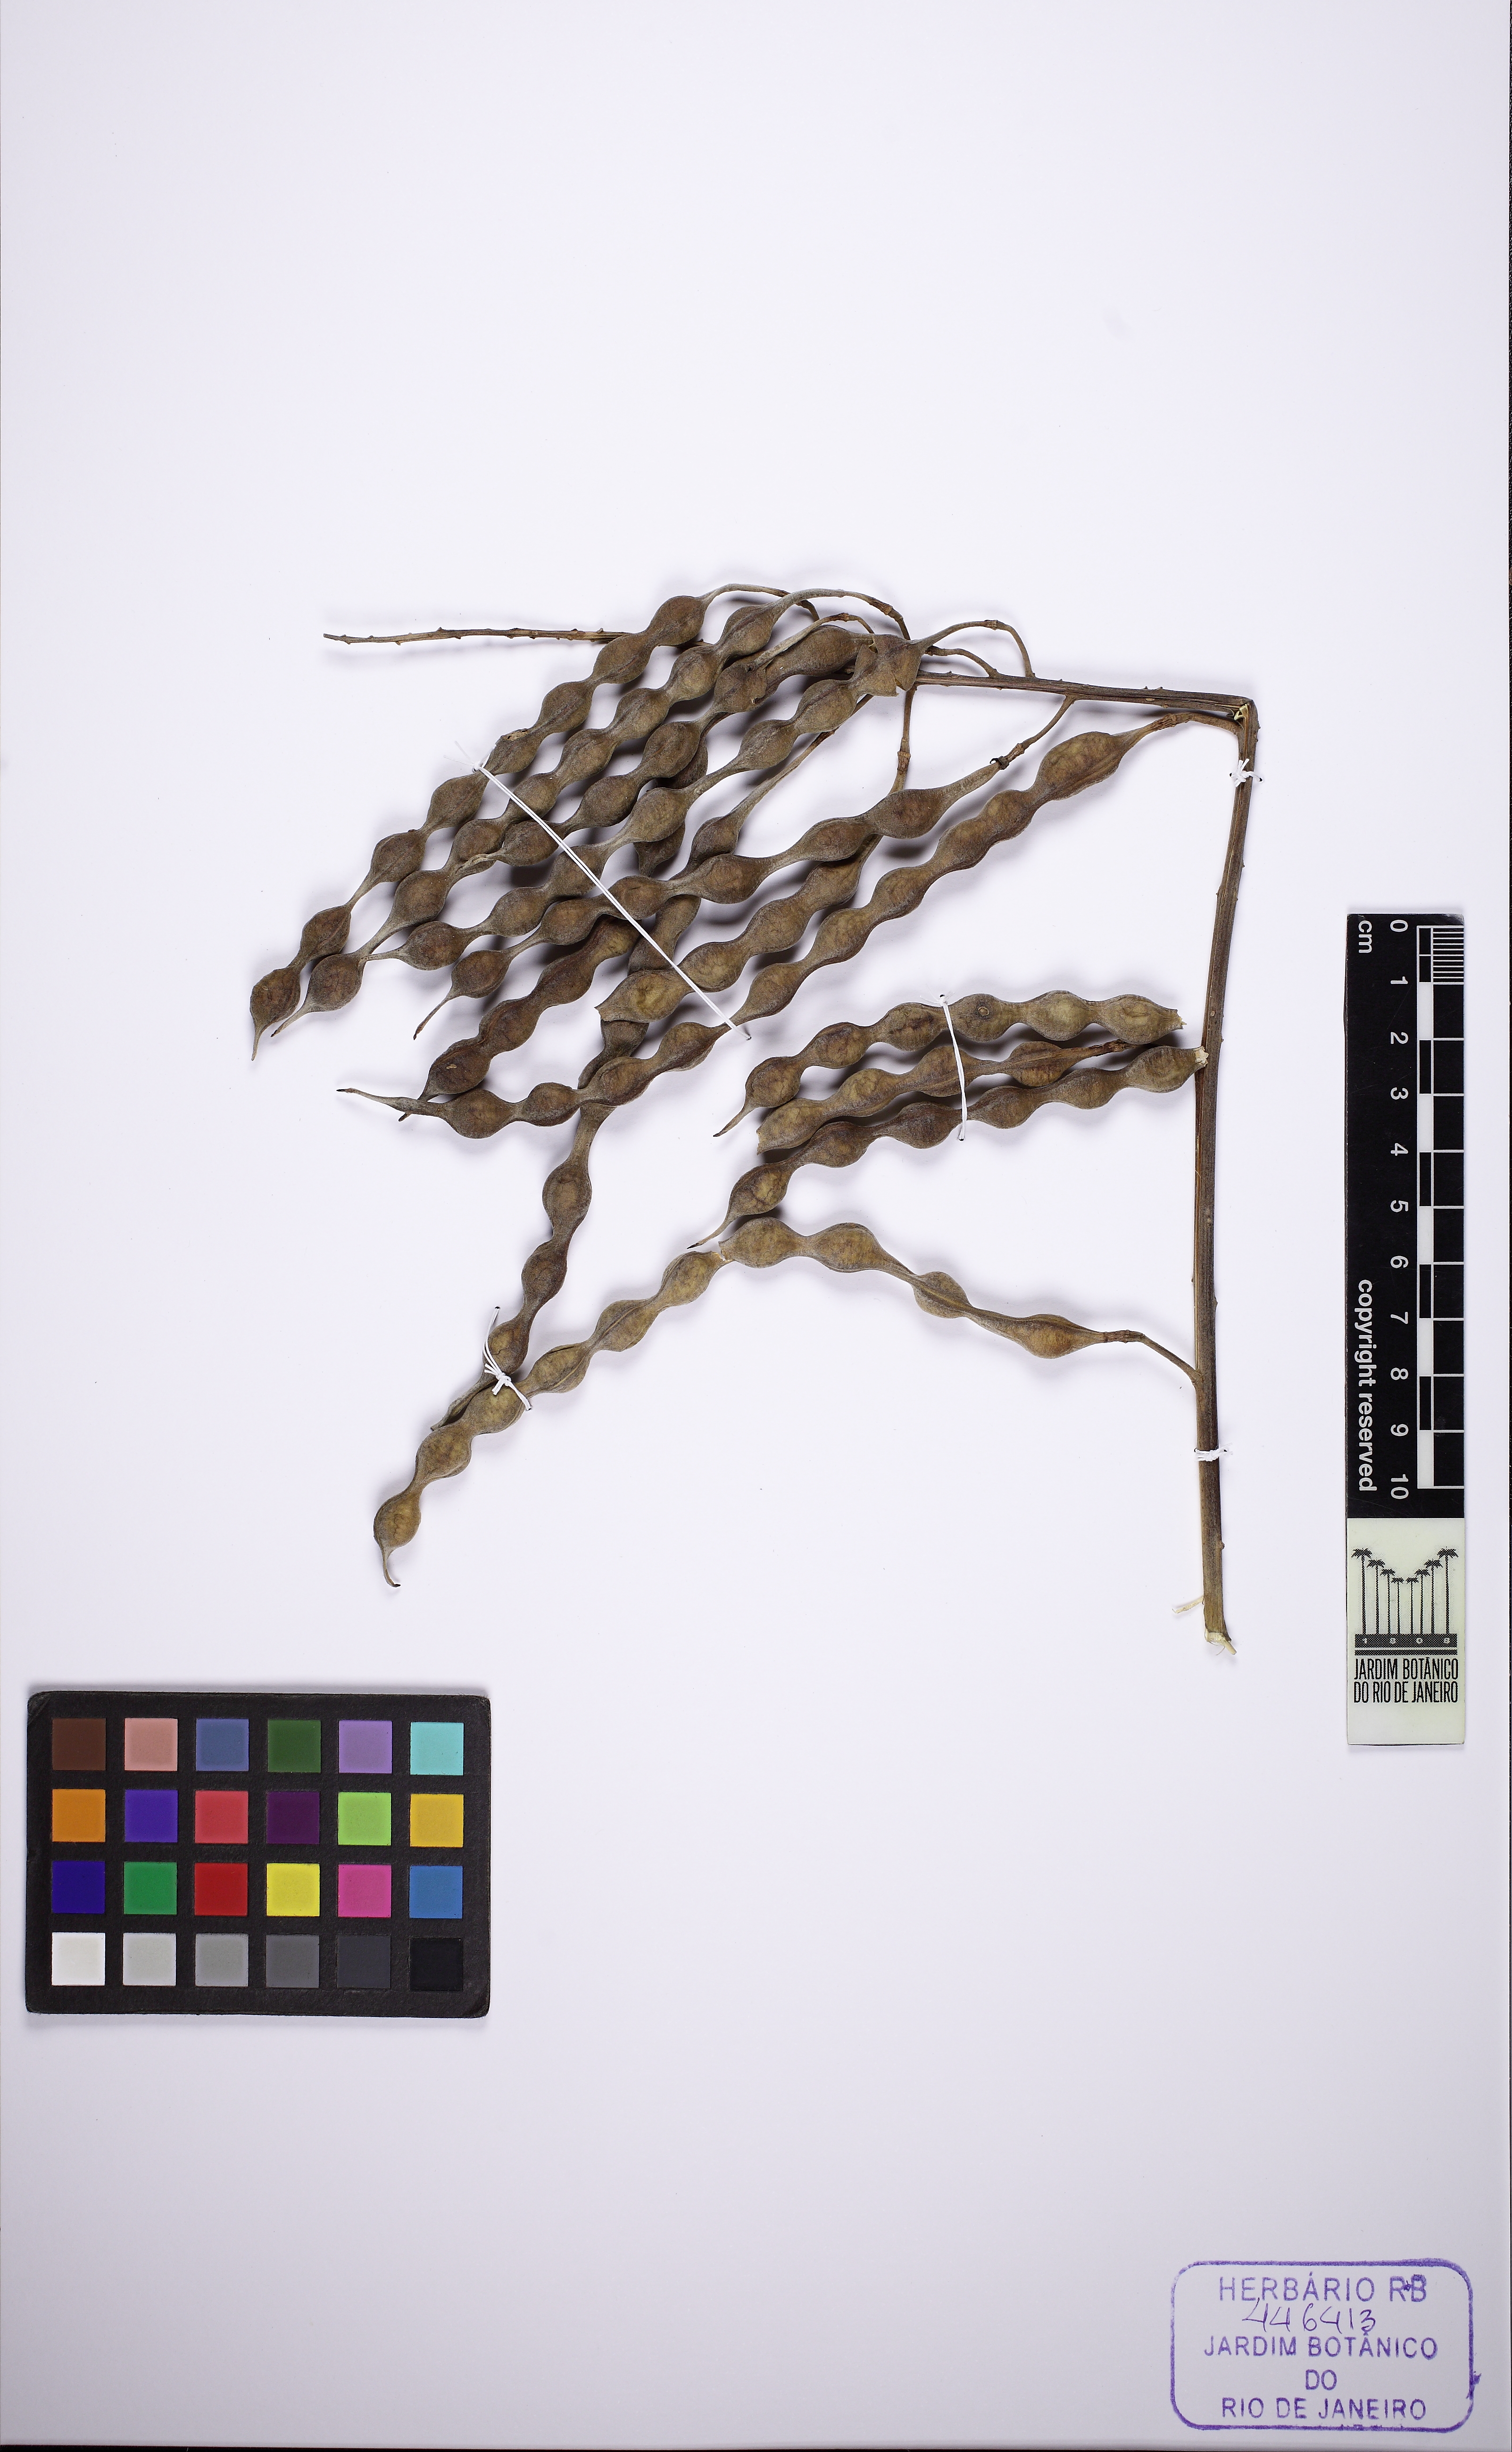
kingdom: Plantae
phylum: Tracheophyta
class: Magnoliopsida
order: Fabales
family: Fabaceae
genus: Sophora
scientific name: Sophora tomentosa
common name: Yellow necklacepod
